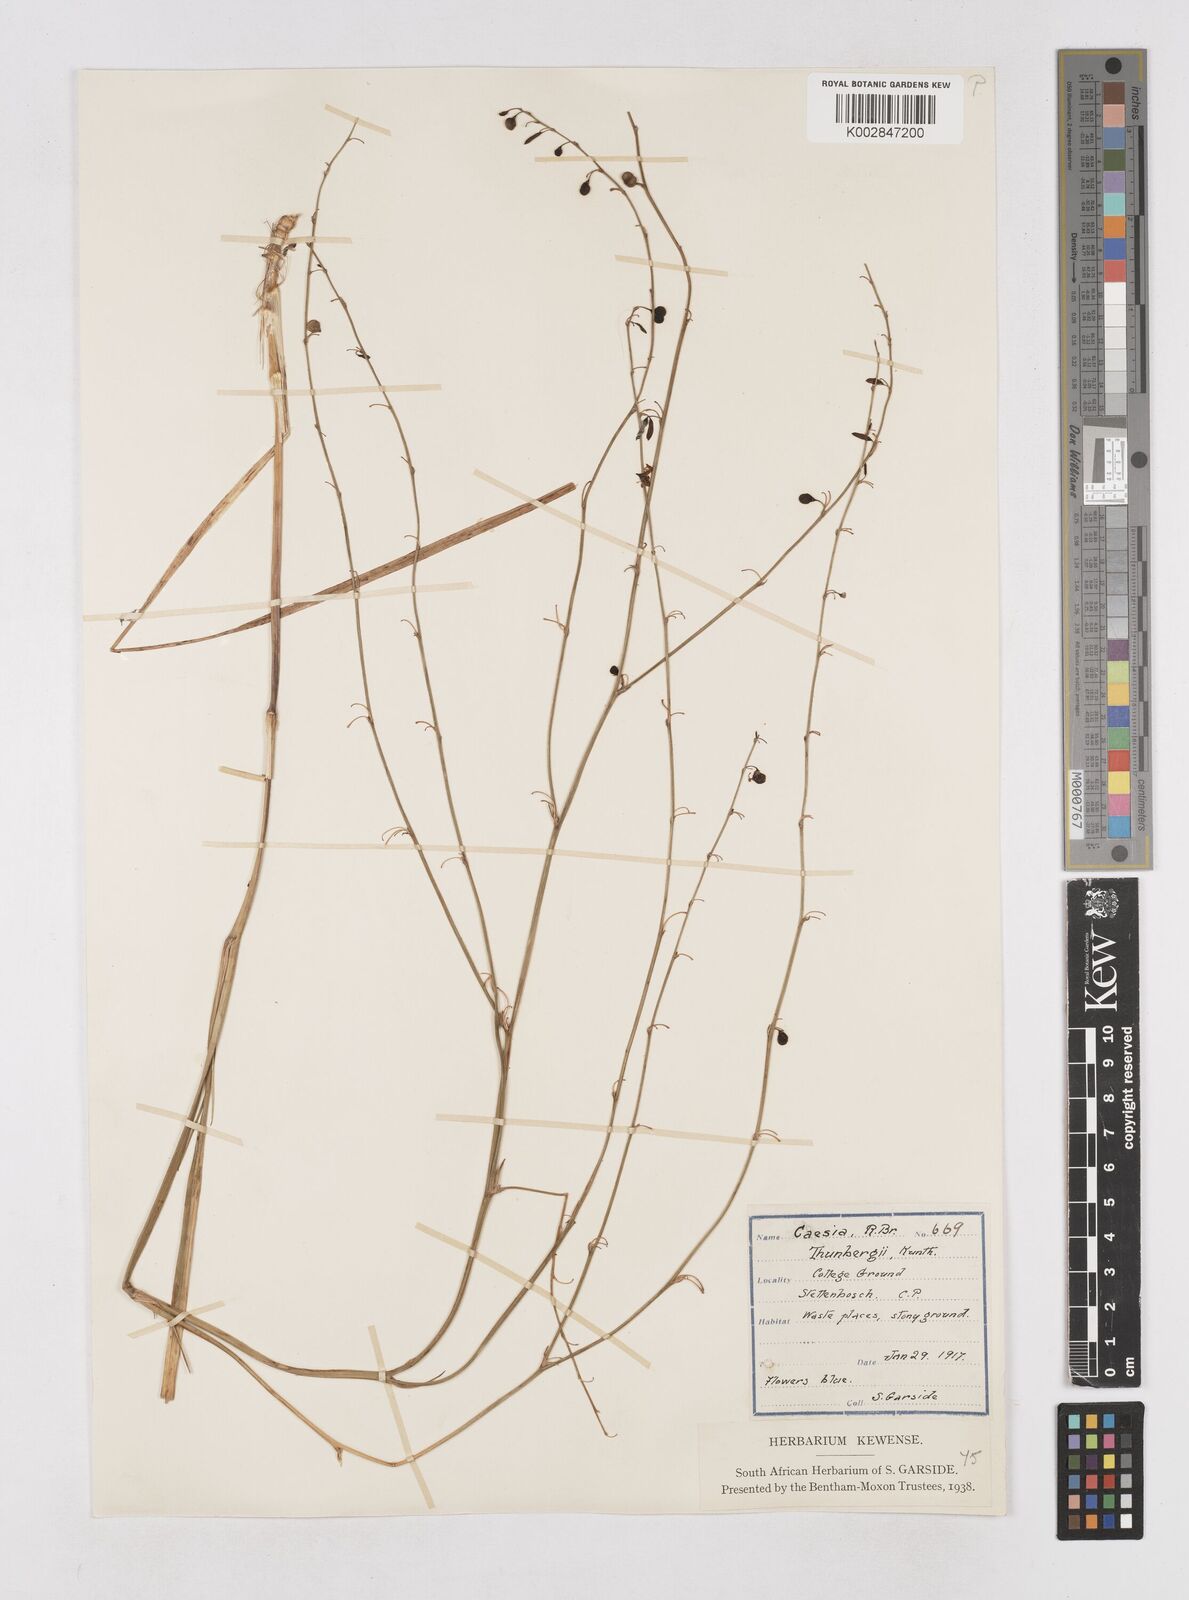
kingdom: Plantae
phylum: Tracheophyta
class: Liliopsida
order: Asparagales
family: Asphodelaceae
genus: Caesia
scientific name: Caesia contorta
